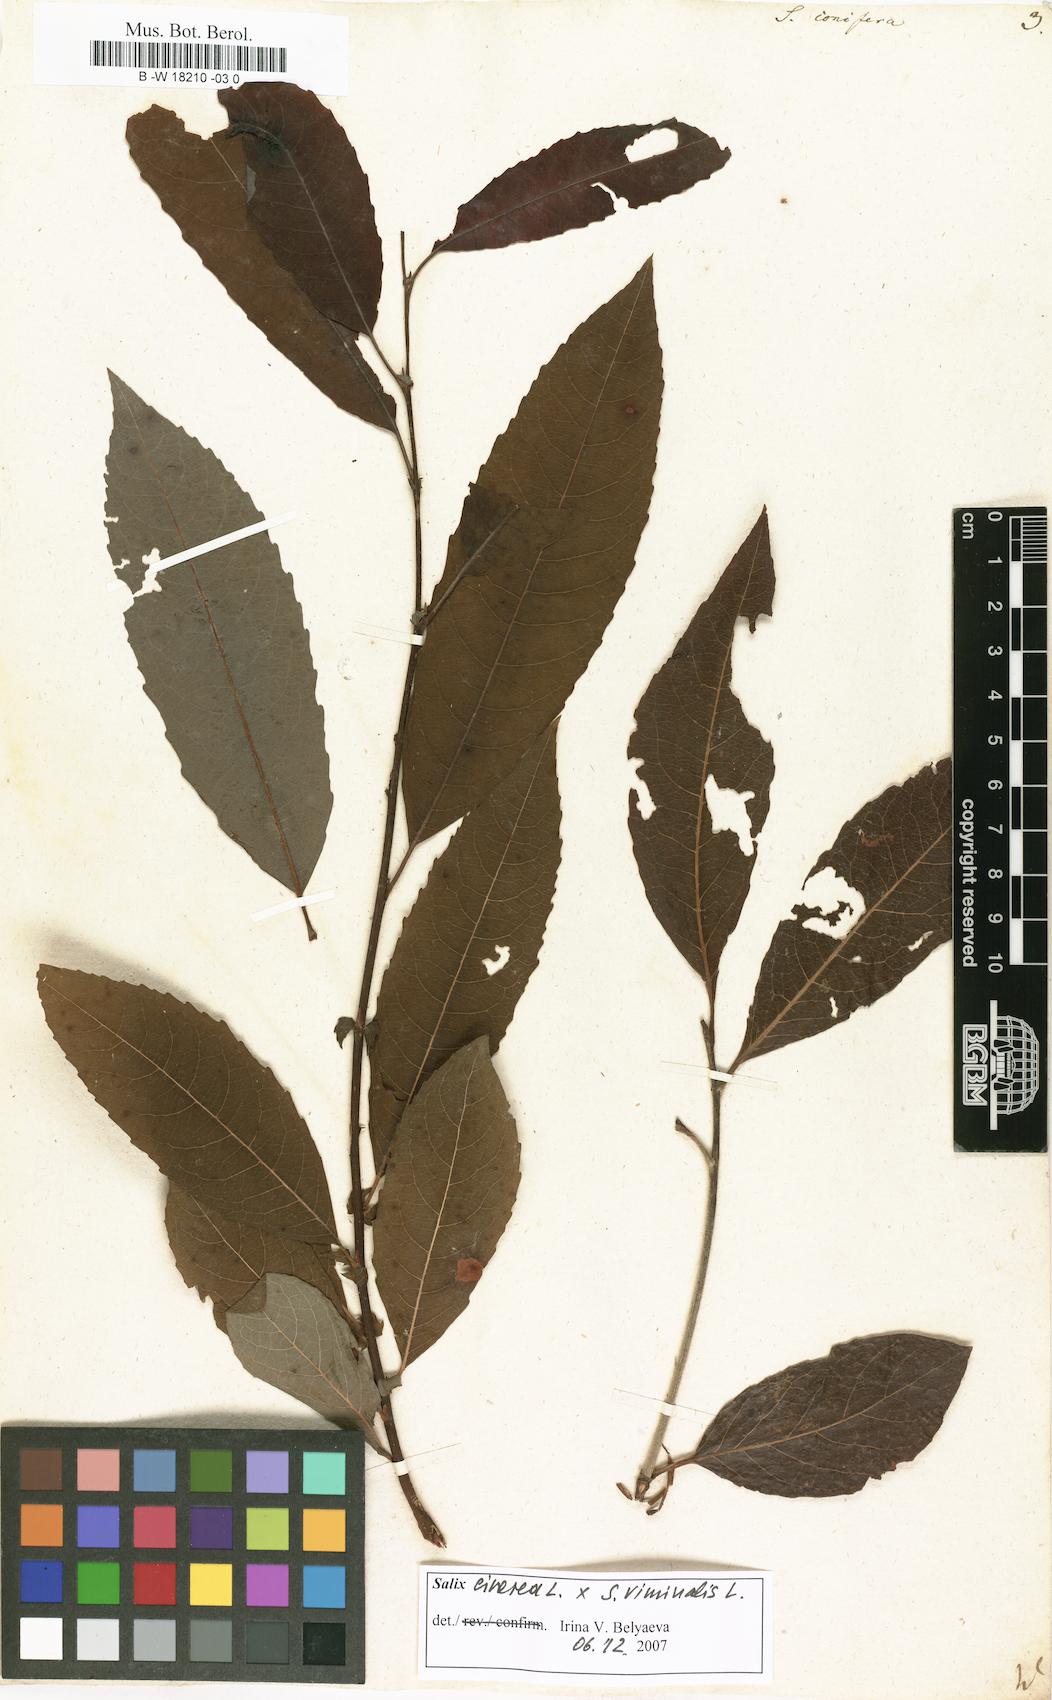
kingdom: Plantae
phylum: Tracheophyta
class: Magnoliopsida
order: Malpighiales
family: Salicaceae
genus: Salix
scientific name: Salix conifera
